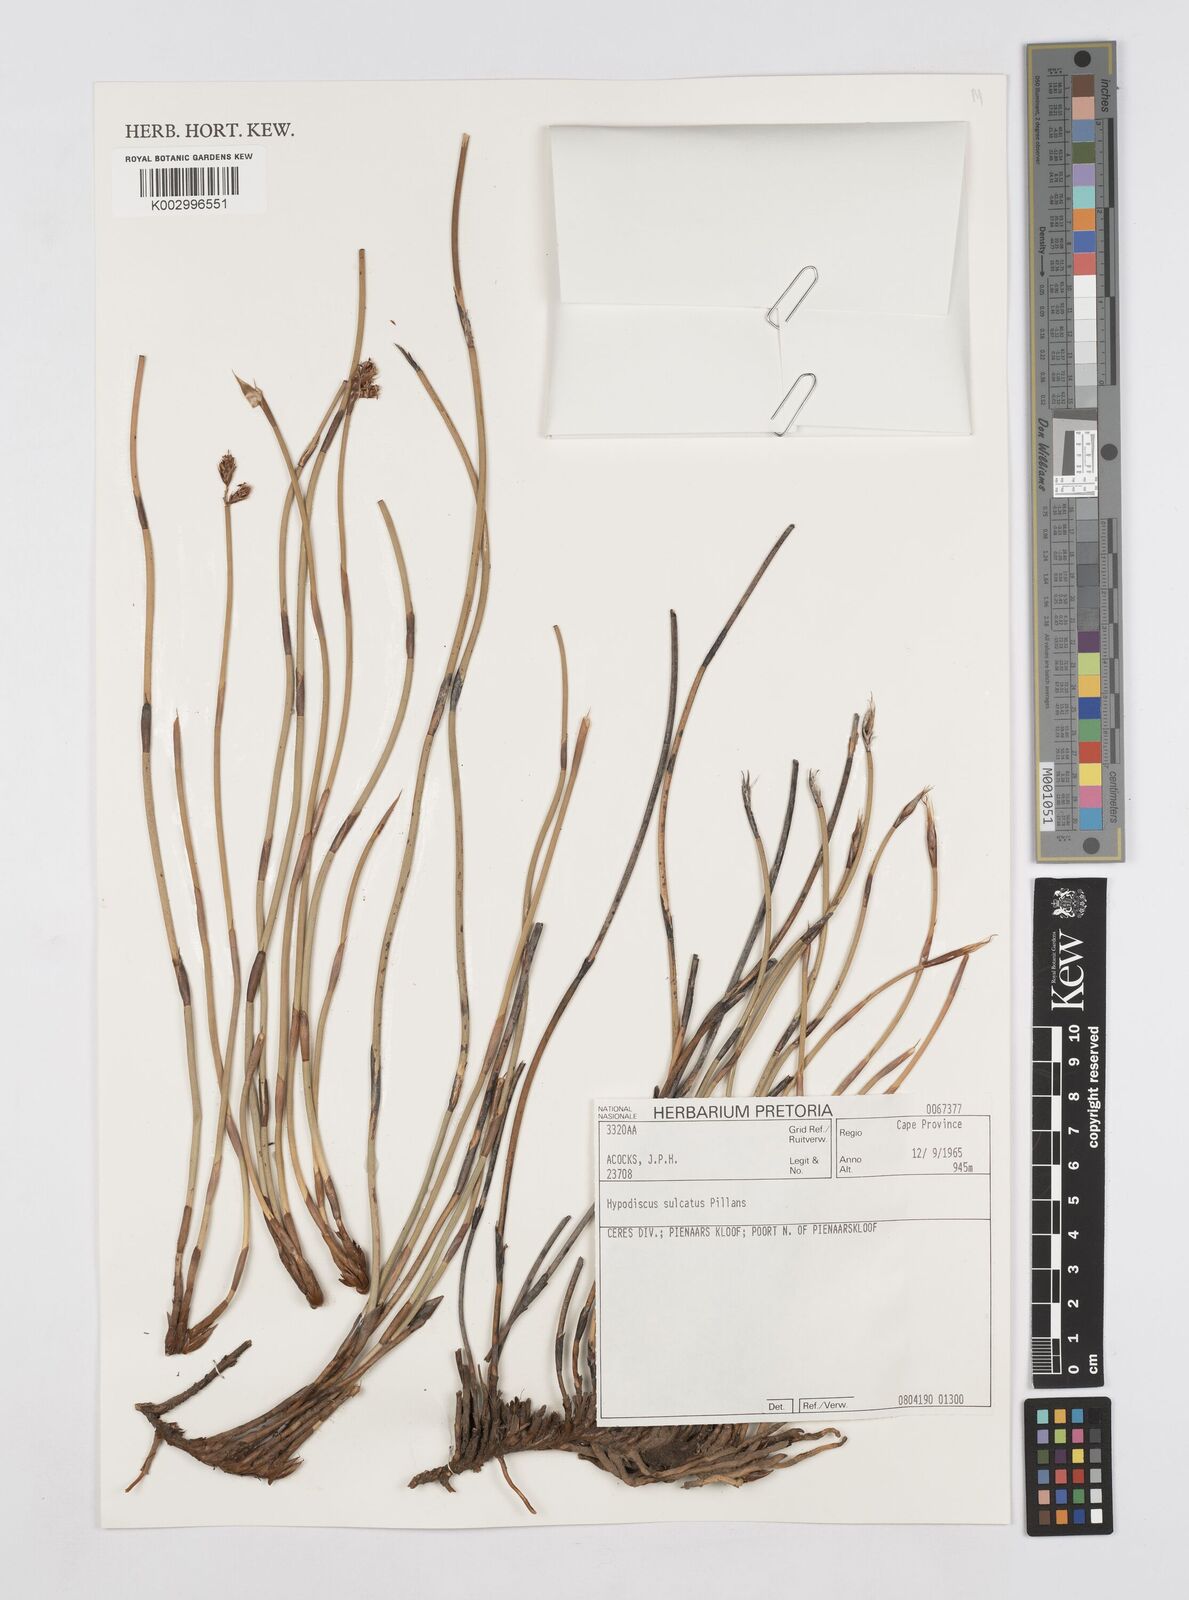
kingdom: Plantae
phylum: Tracheophyta
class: Liliopsida
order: Poales
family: Restionaceae
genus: Hypodiscus
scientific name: Hypodiscus sulcatus
